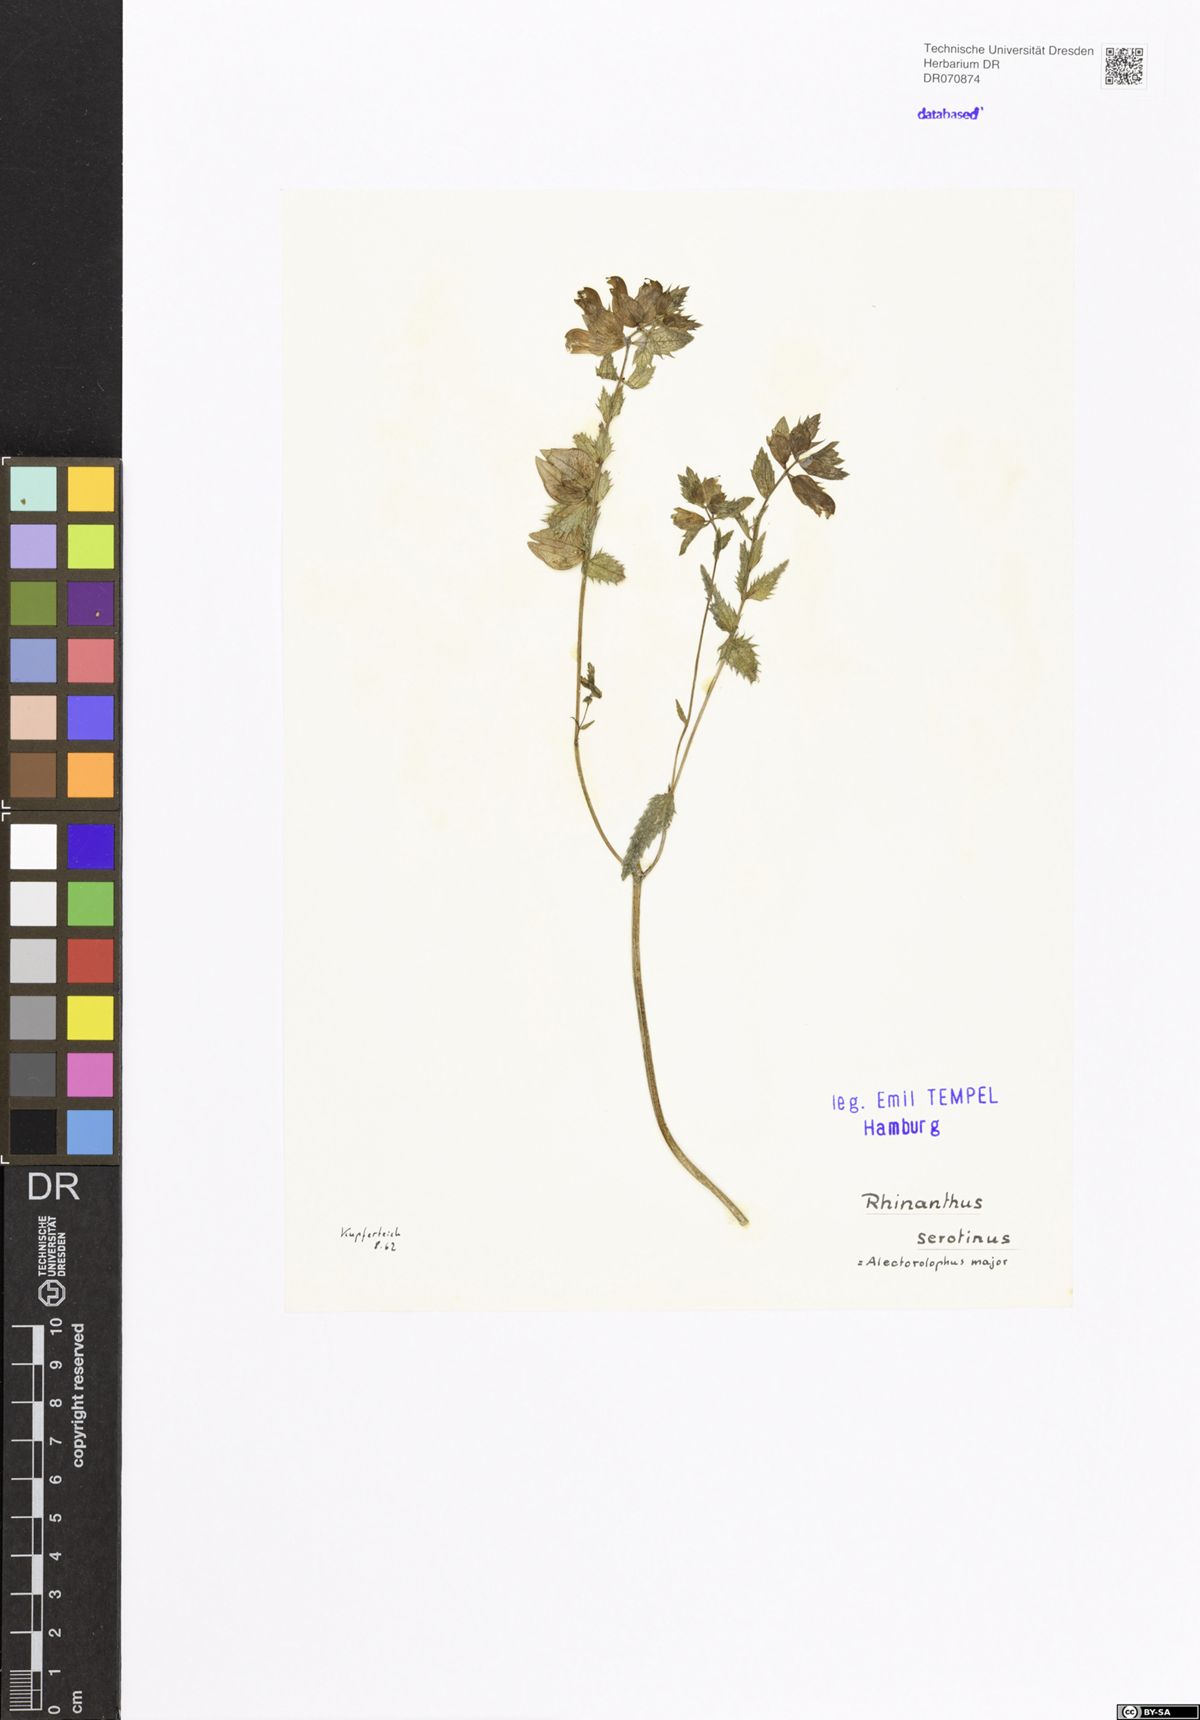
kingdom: Plantae
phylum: Tracheophyta
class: Magnoliopsida
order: Lamiales
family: Orobanchaceae
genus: Rhinanthus
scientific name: Rhinanthus serotinus
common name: Late-flowering yellow rattle
